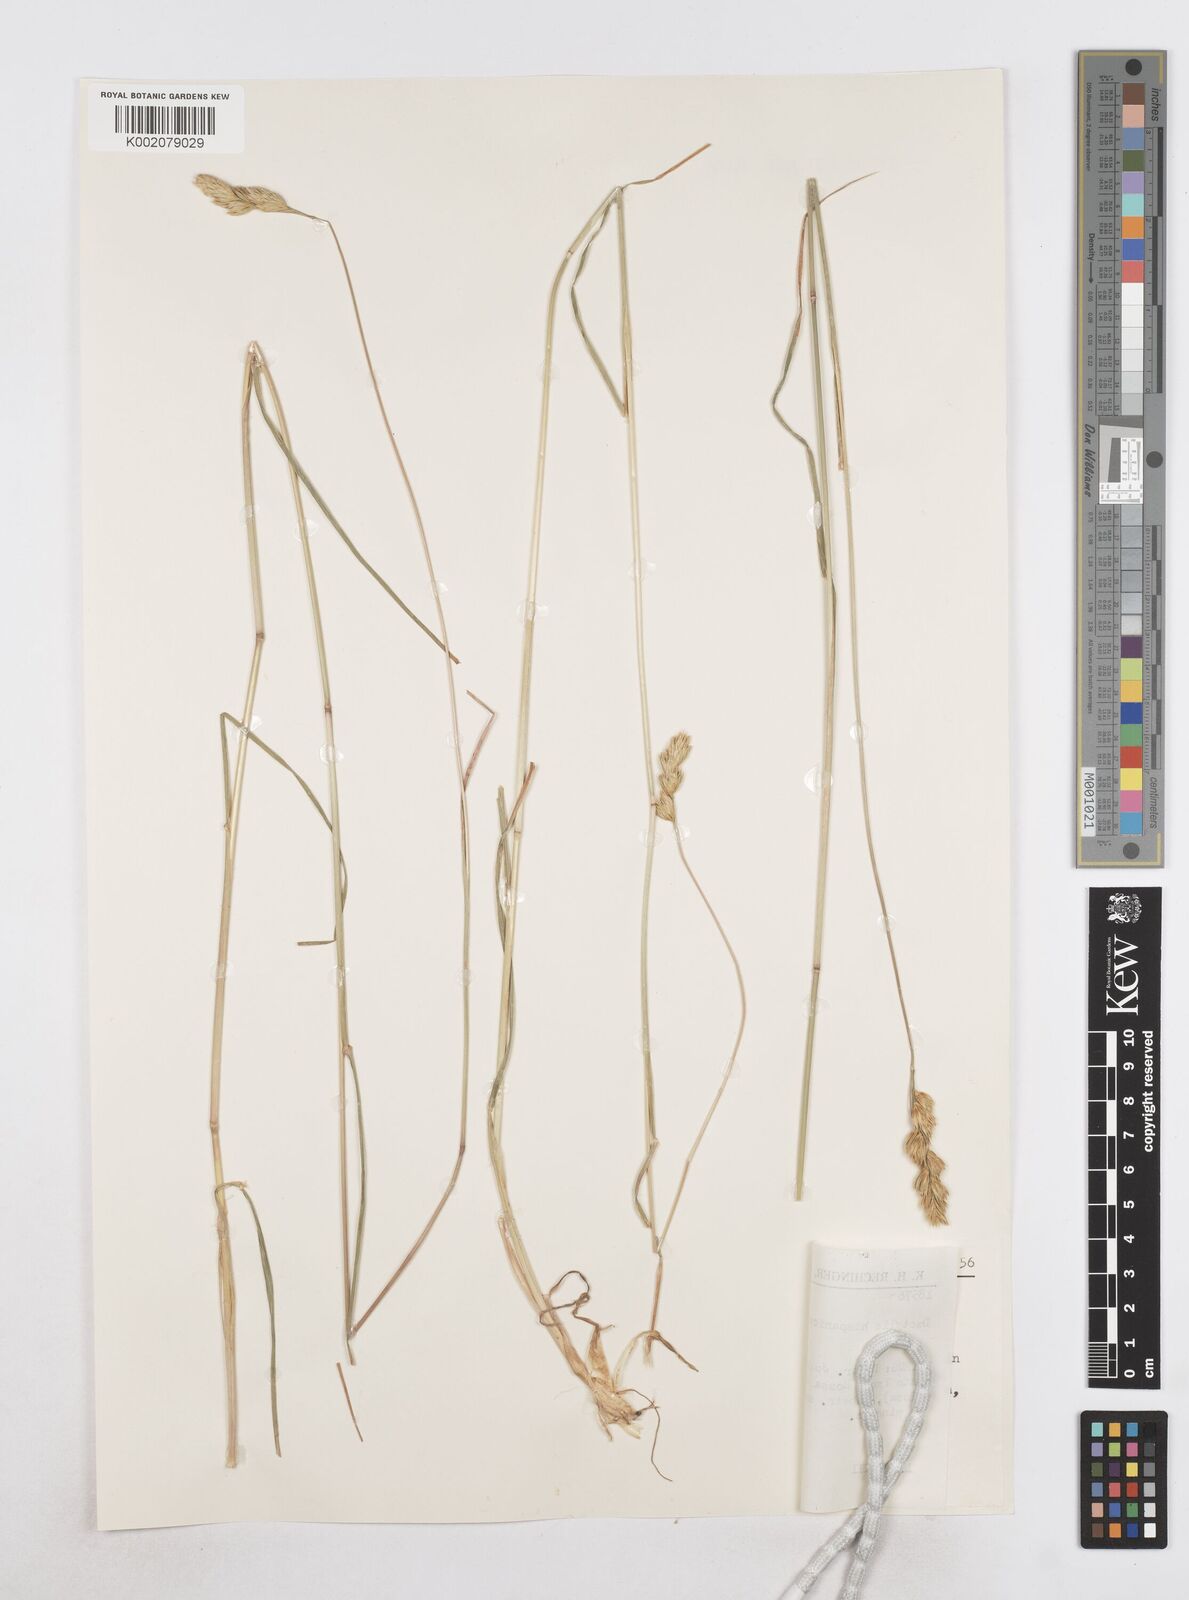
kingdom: Plantae
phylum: Tracheophyta
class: Liliopsida
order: Poales
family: Poaceae
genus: Dactylis
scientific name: Dactylis glomerata
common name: Orchardgrass
